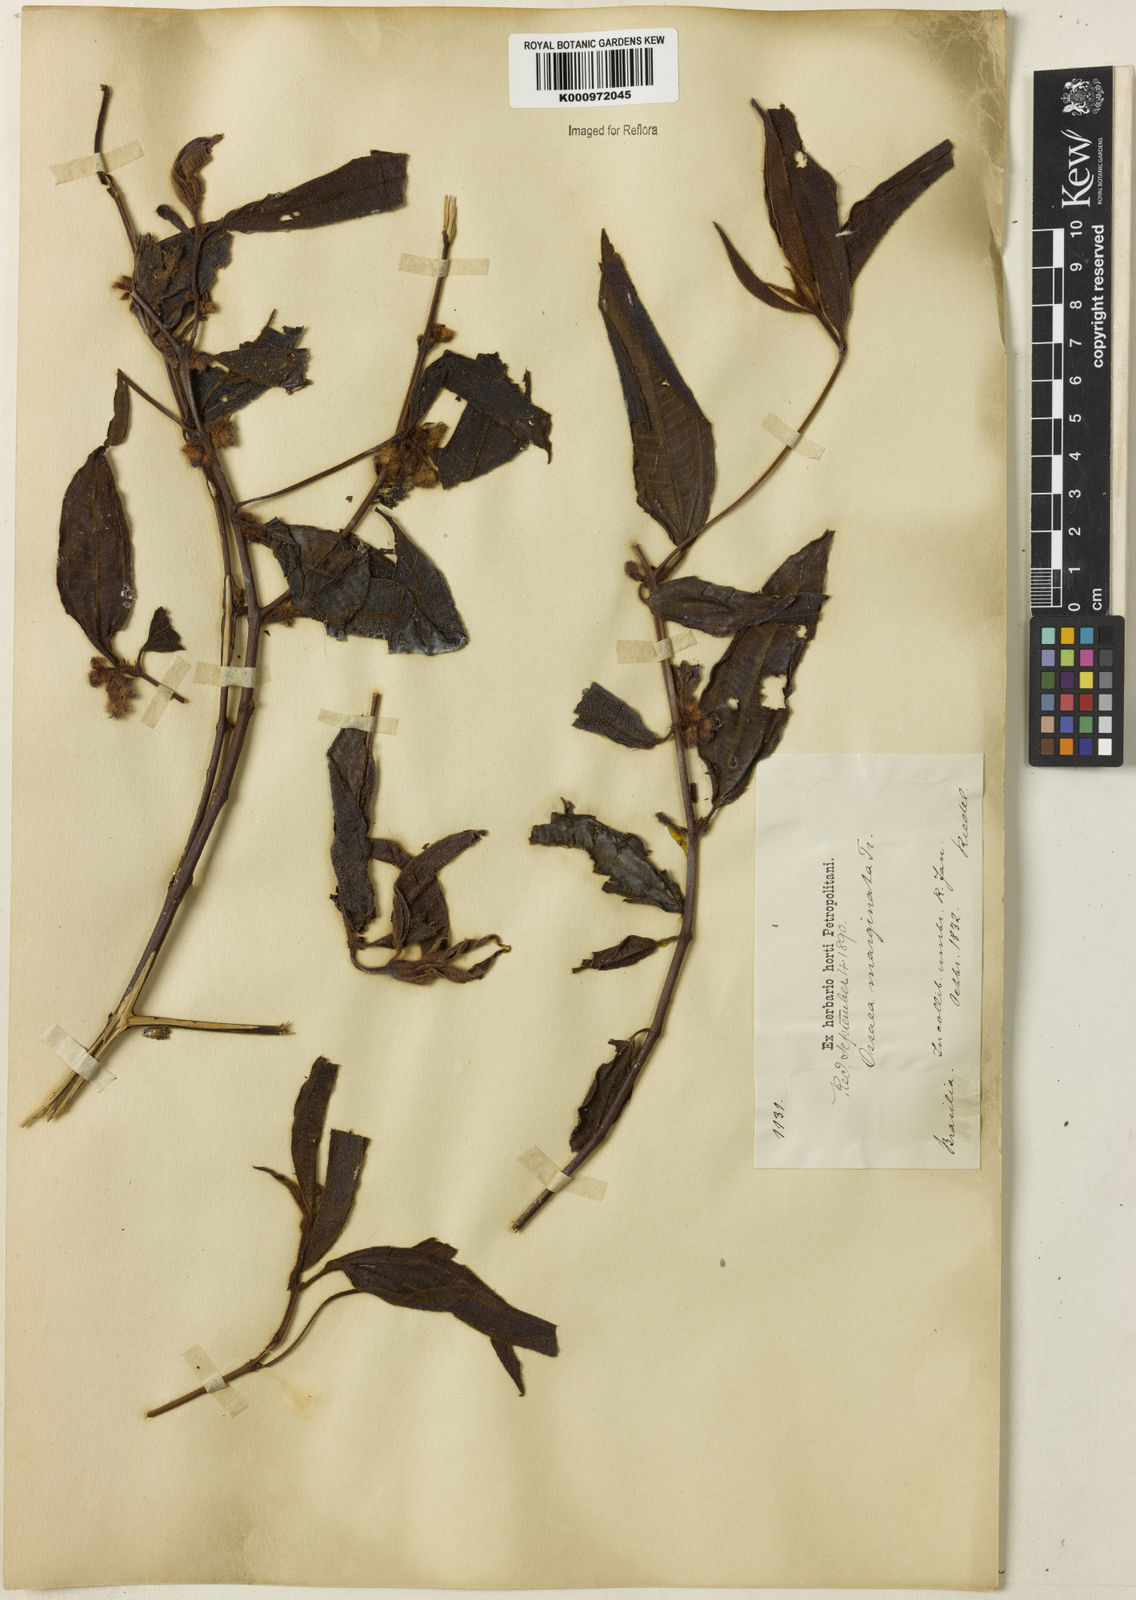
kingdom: Plantae
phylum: Tracheophyta
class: Magnoliopsida
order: Myrtales
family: Melastomataceae
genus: Miconia
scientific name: Miconia leamarginata
